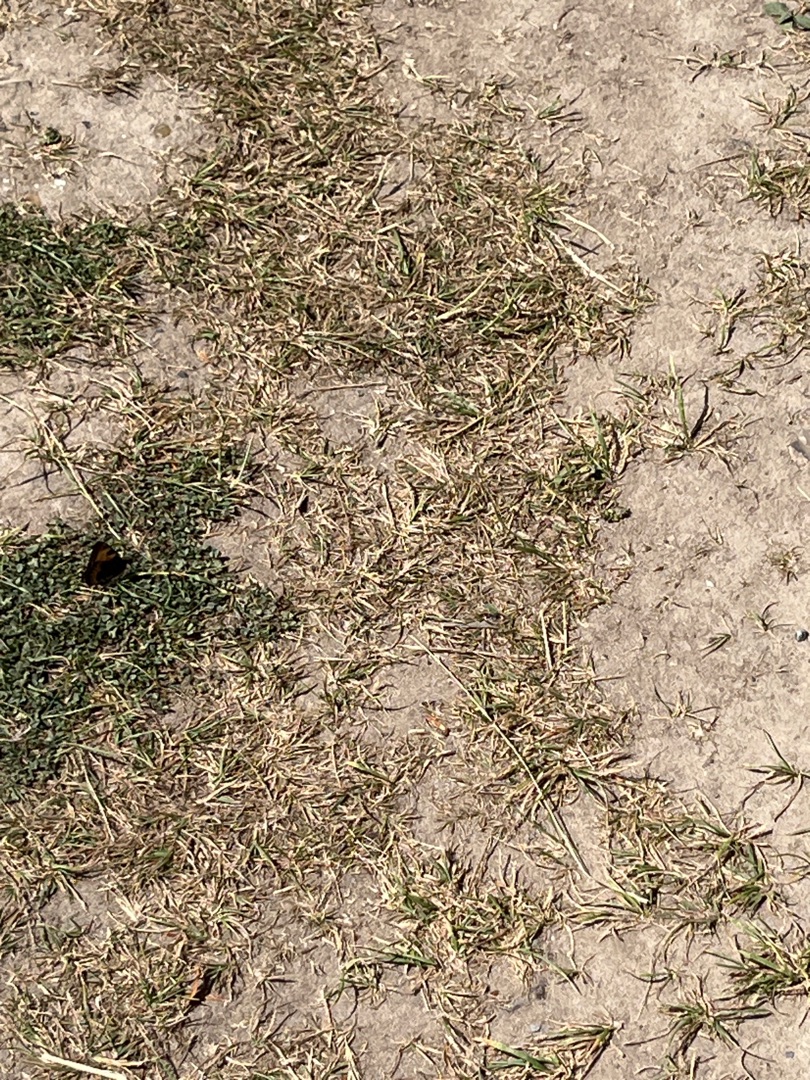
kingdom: Animalia
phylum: Arthropoda
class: Insecta
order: Lepidoptera
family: Nymphalidae
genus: Aglais
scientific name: Aglais urticae
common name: Nældens takvinge
